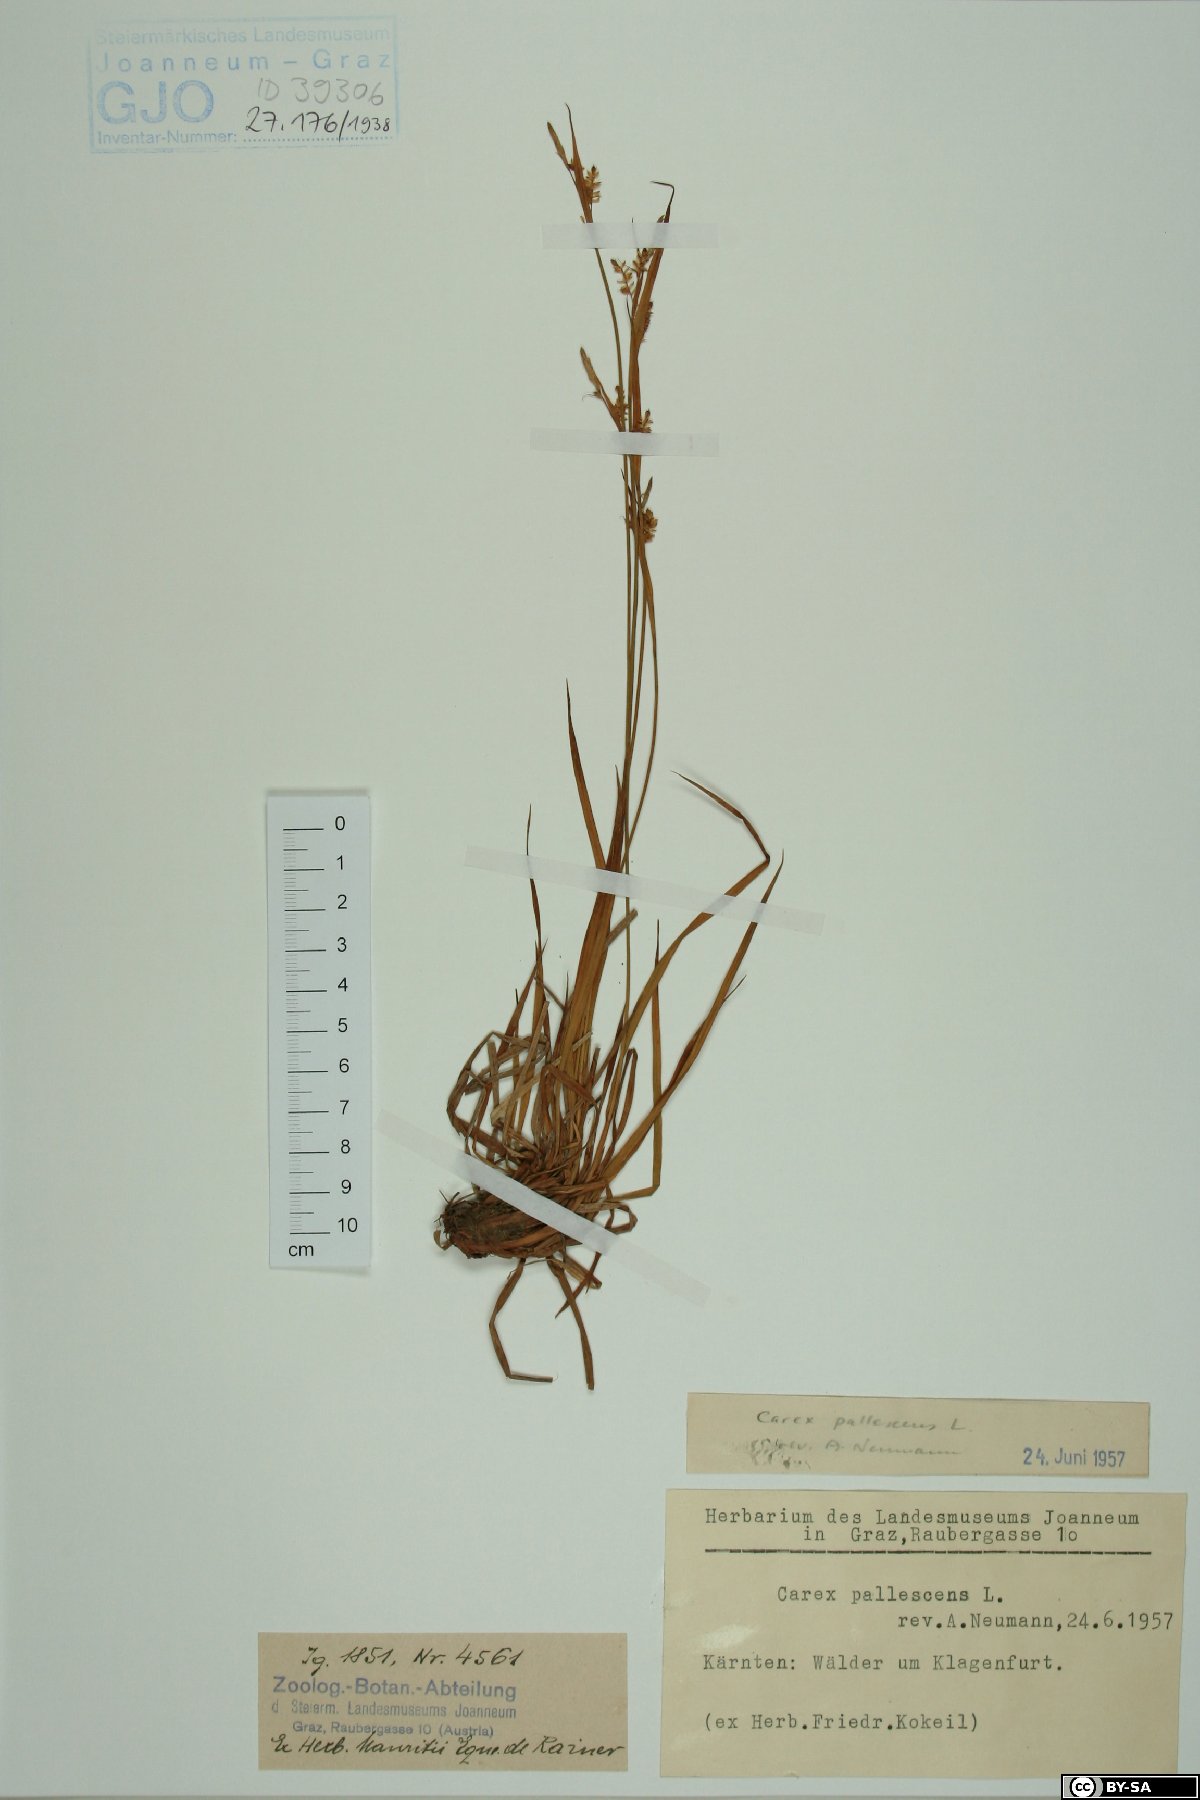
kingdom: Plantae
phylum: Tracheophyta
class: Liliopsida
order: Poales
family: Cyperaceae
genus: Carex
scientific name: Carex pallescens
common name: Pale sedge
